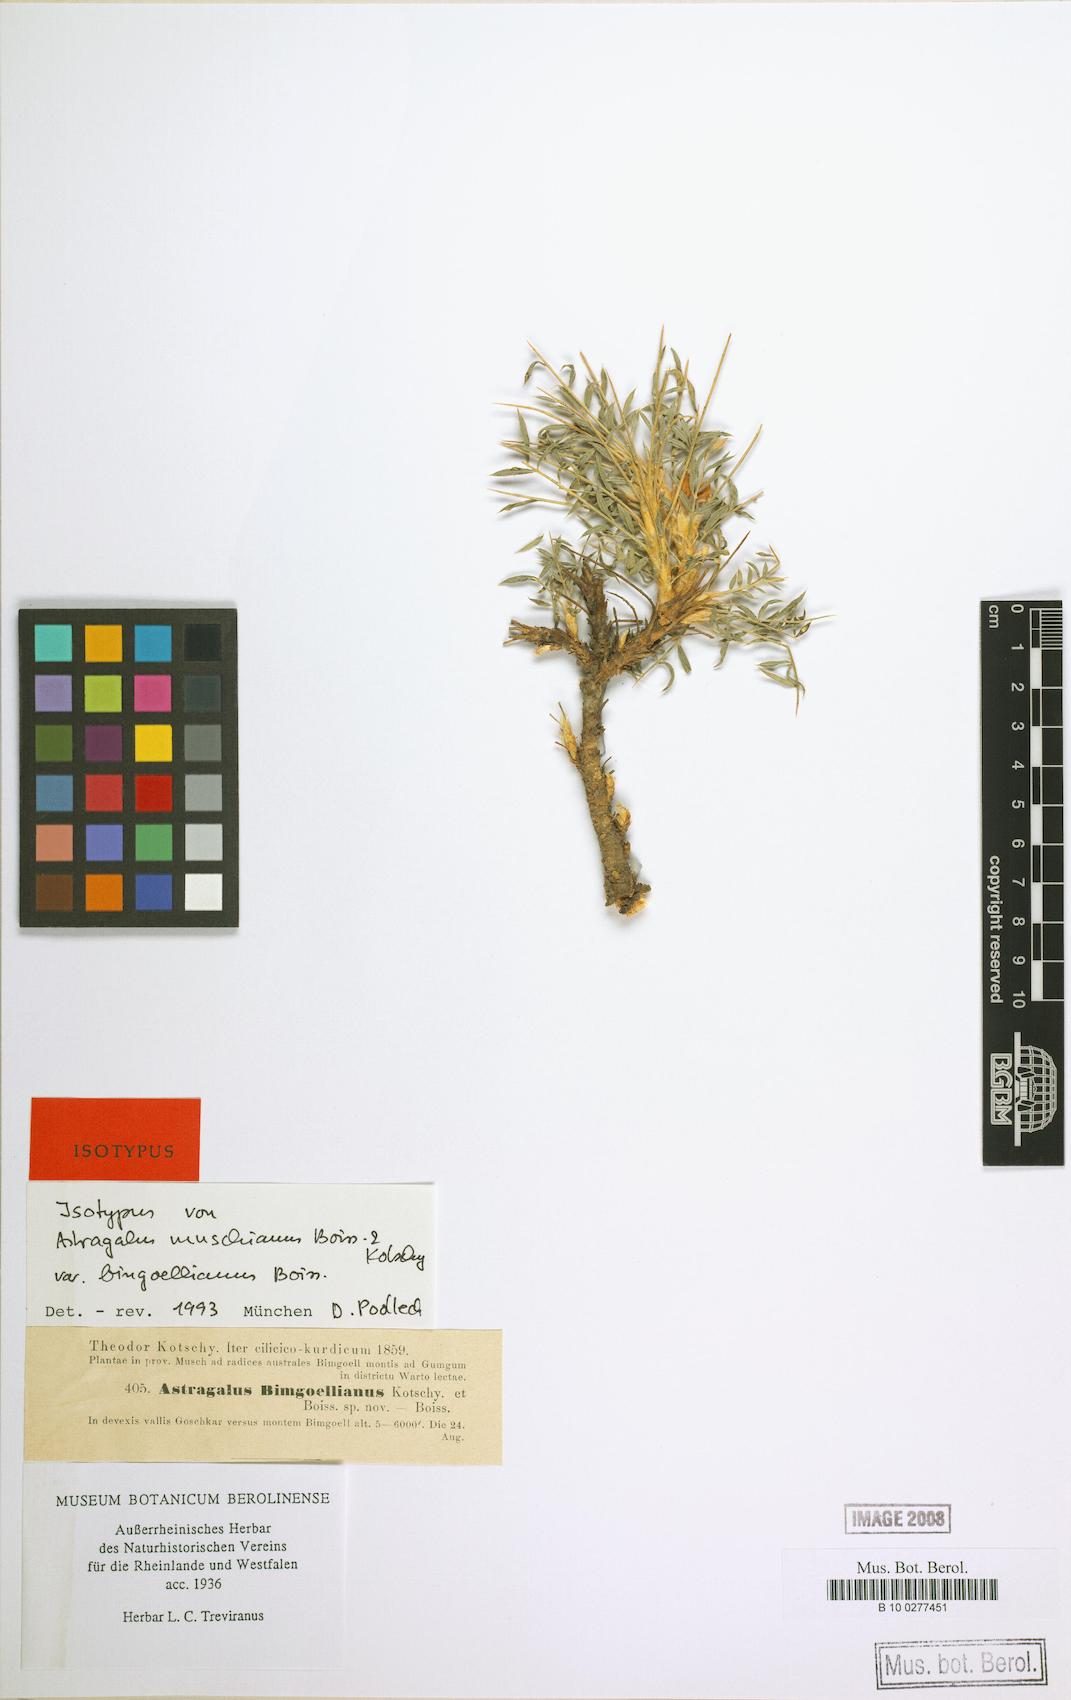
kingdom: Plantae
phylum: Tracheophyta
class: Magnoliopsida
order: Fabales
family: Fabaceae
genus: Astragalus
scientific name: Astragalus muschianus
